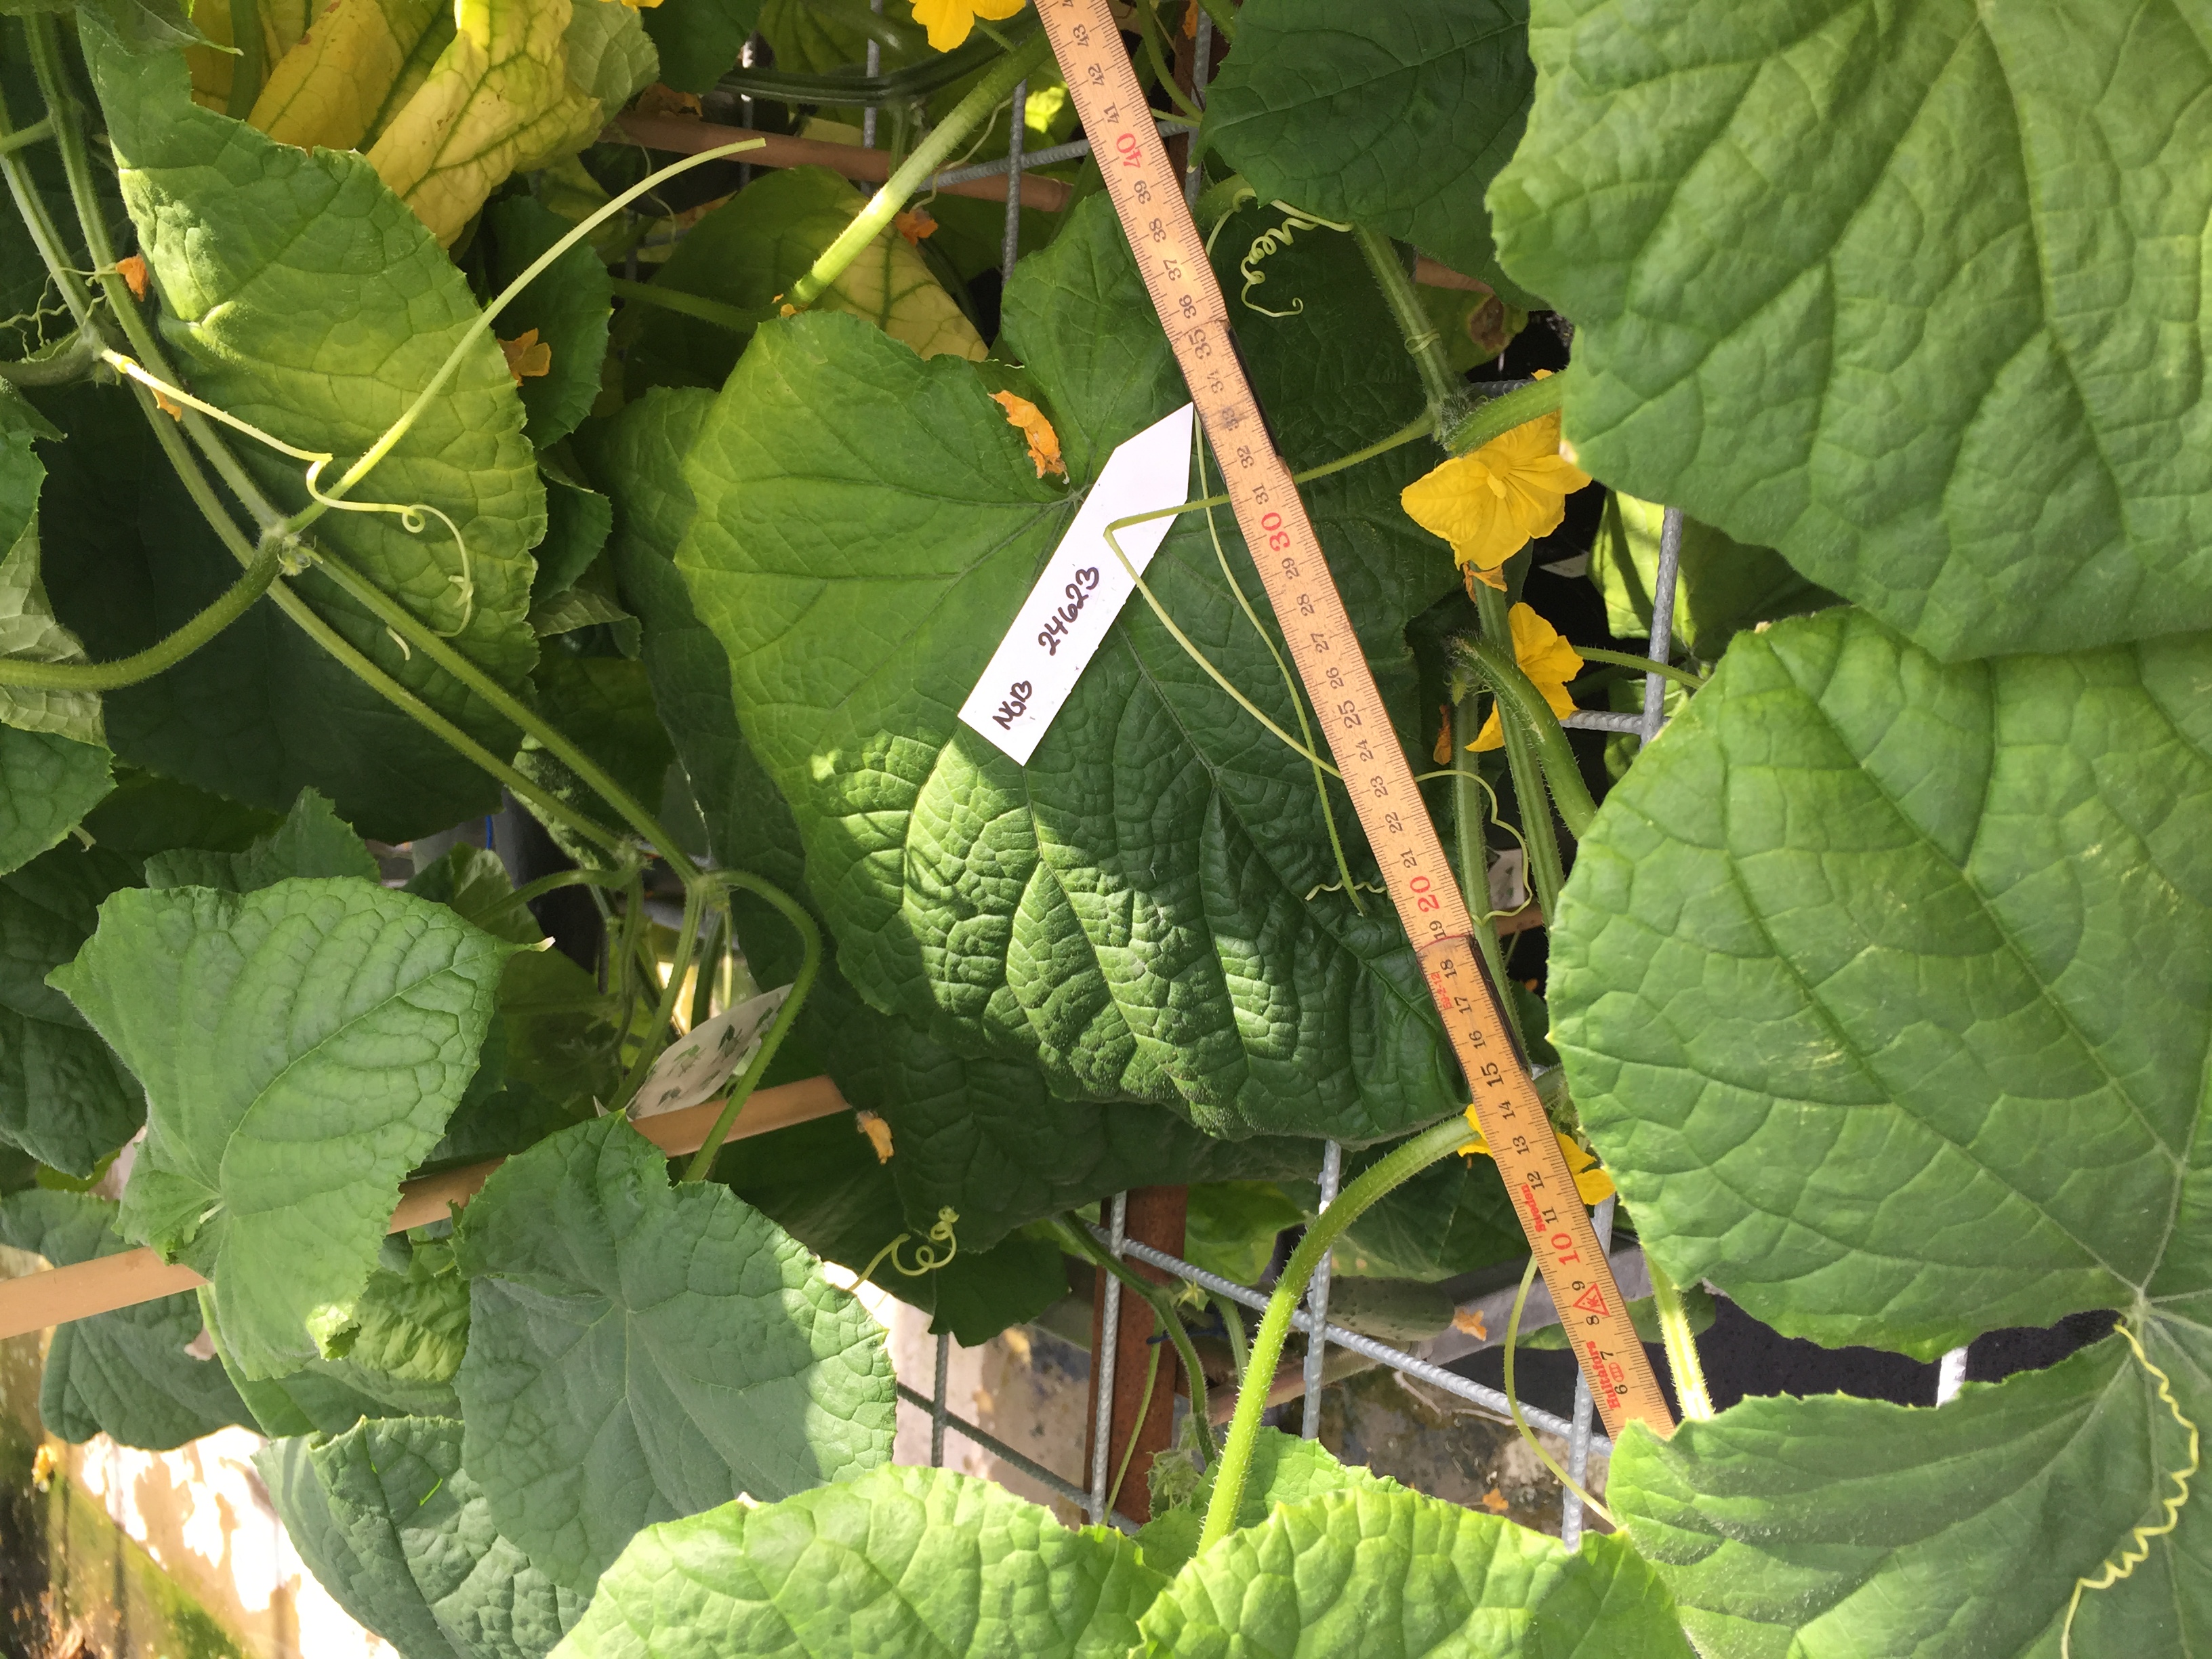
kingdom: Plantae
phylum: Tracheophyta
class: Magnoliopsida
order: Cucurbitales
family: Cucurbitaceae
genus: Cucumis
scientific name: Cucumis sativus
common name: Cucumber
